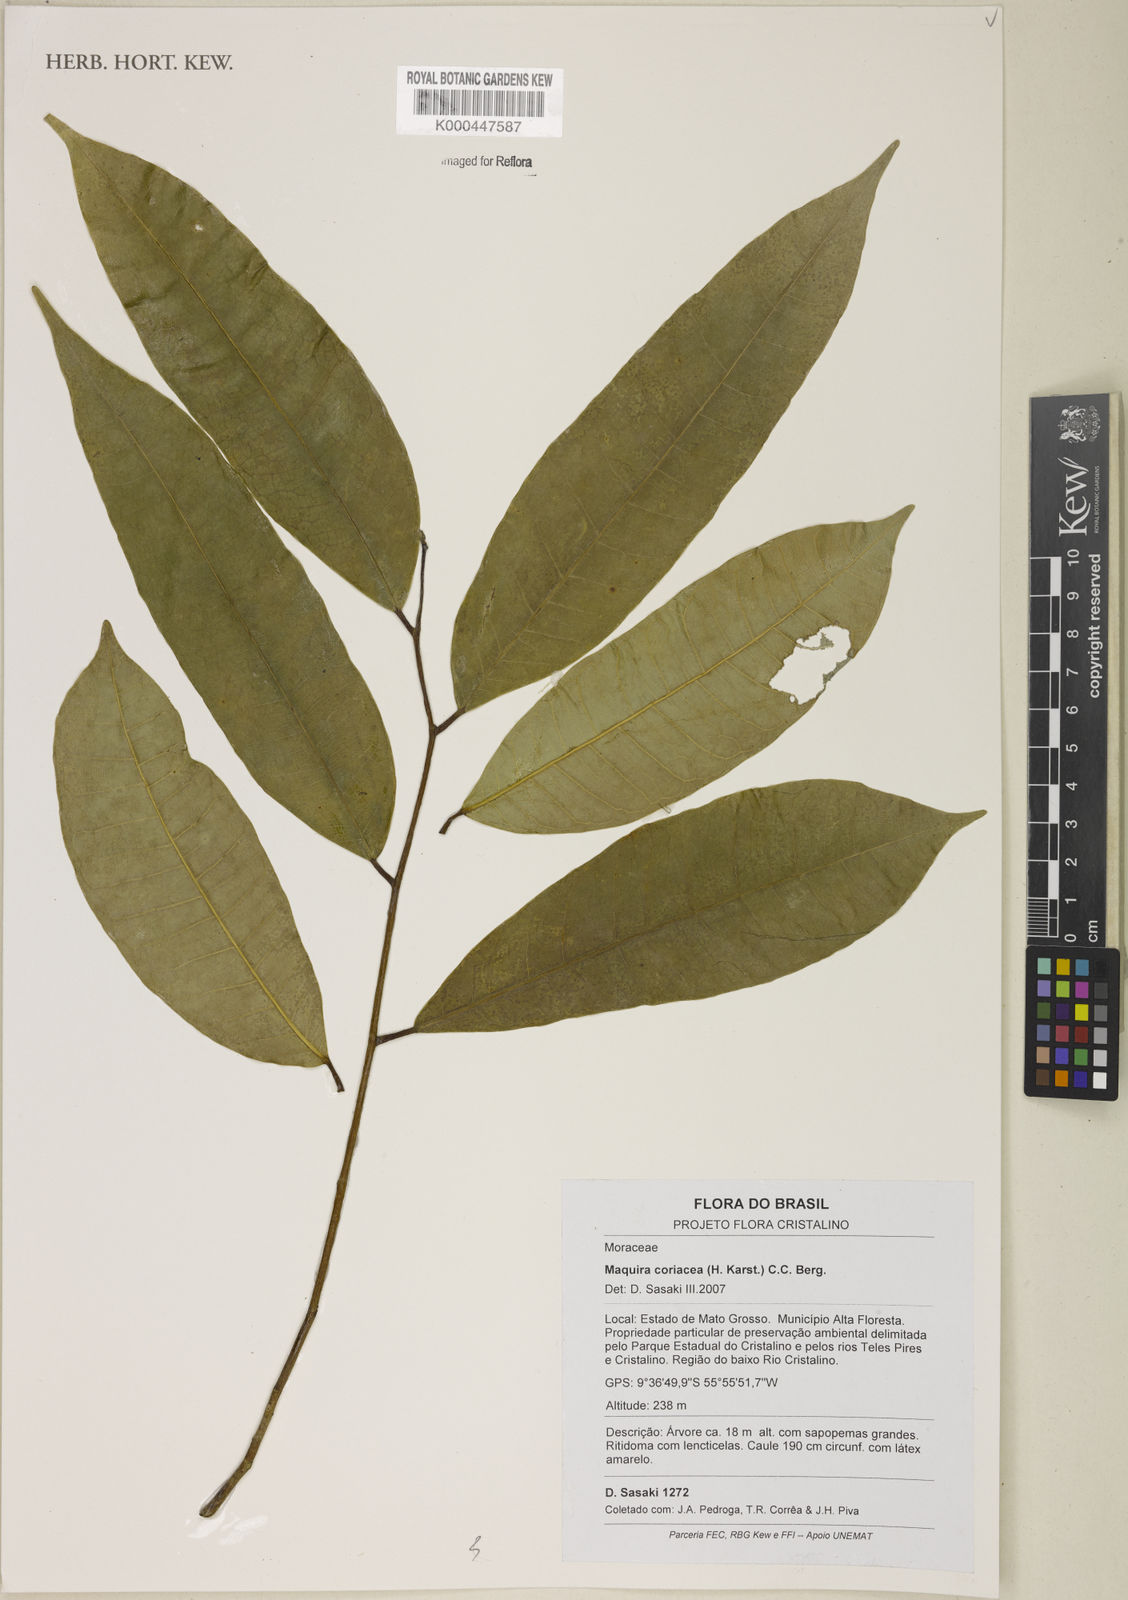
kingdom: Plantae
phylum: Tracheophyta
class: Magnoliopsida
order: Rosales
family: Moraceae
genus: Maquira
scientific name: Maquira coriacea
